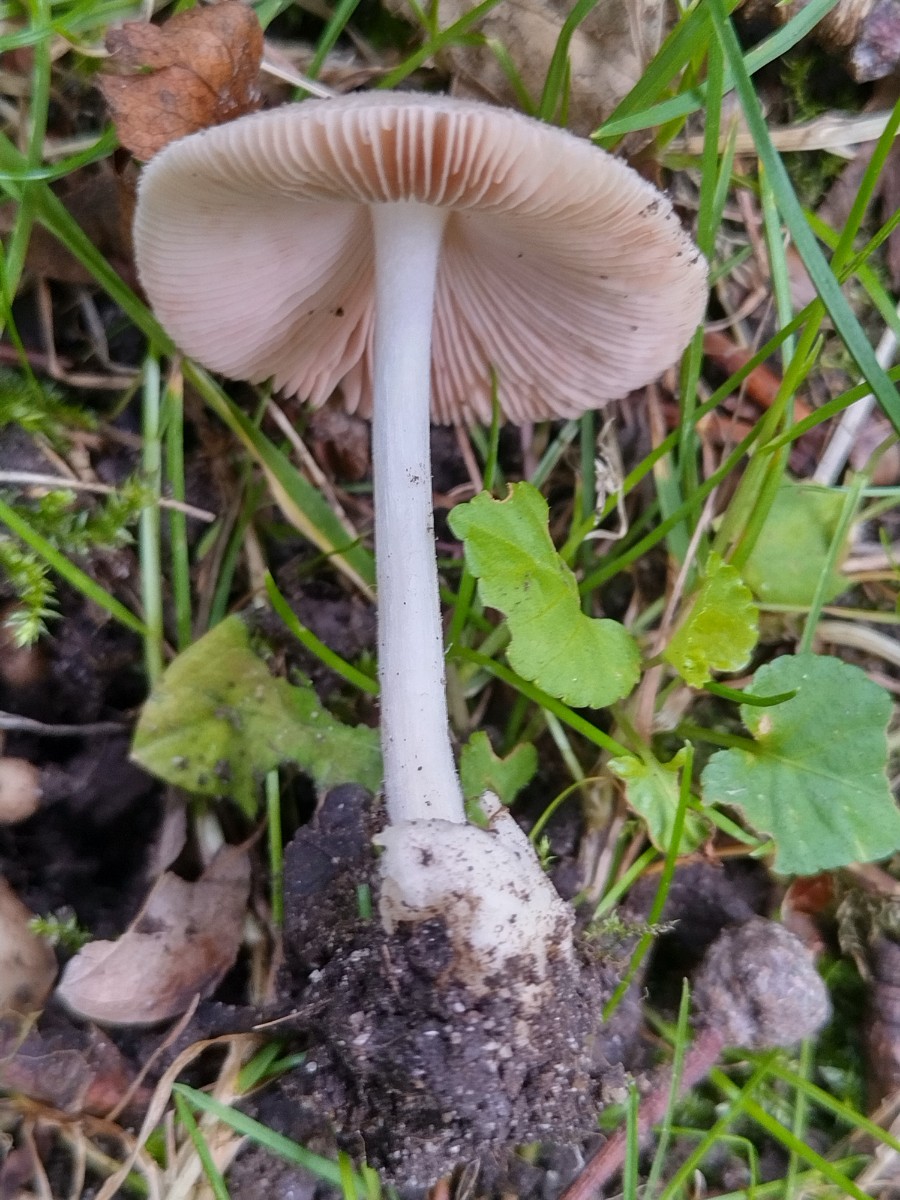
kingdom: Fungi
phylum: Basidiomycota
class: Agaricomycetes
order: Agaricales
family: Pluteaceae
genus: Volvariella
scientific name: Volvariella murinella
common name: musegrå posesvamp
